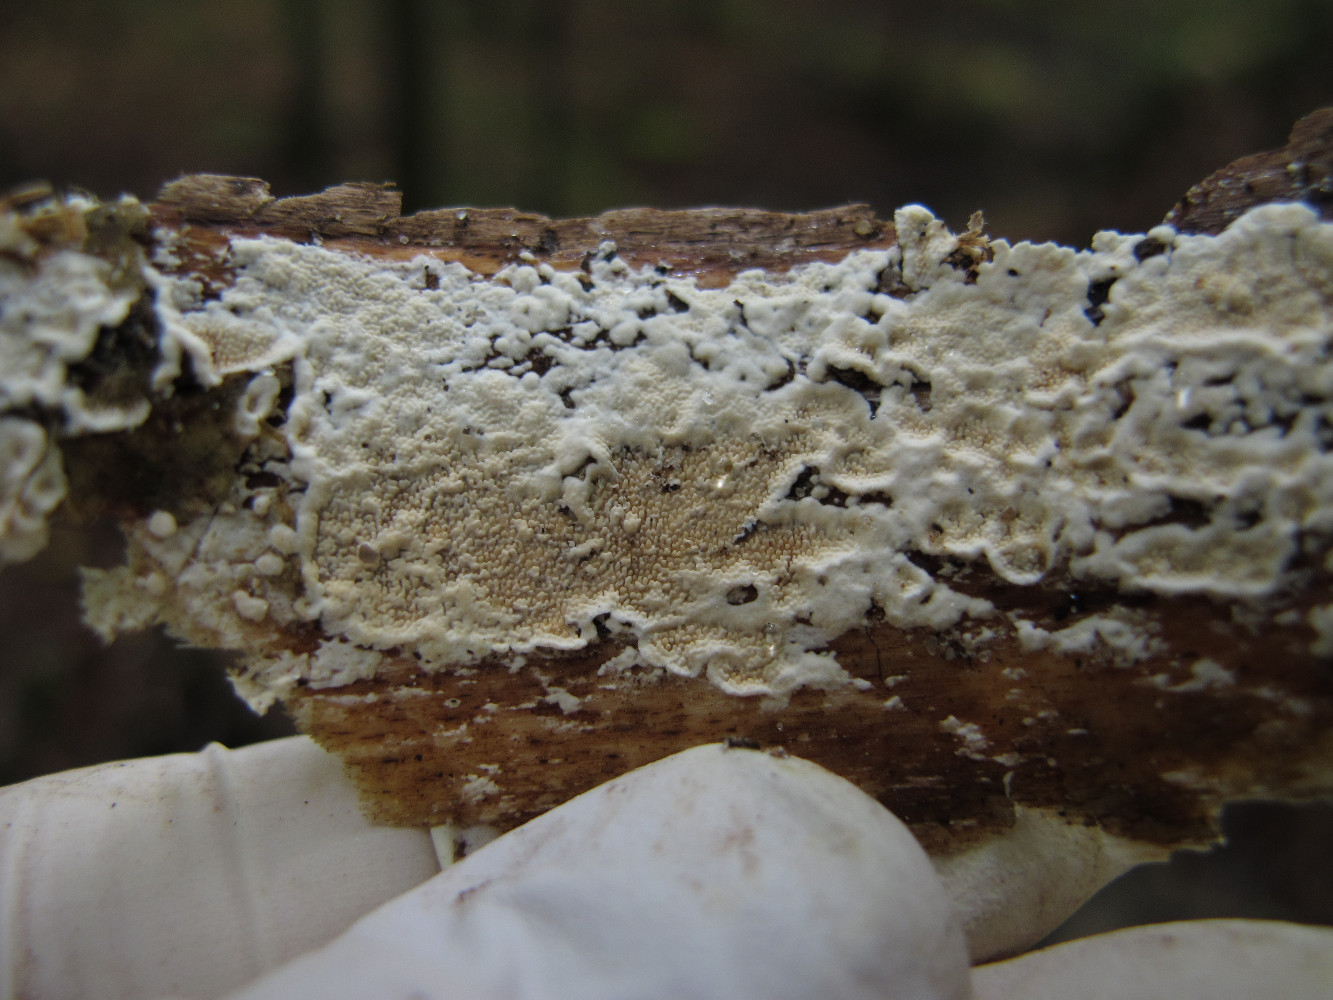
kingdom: Fungi
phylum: Basidiomycota
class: Agaricomycetes
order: Polyporales
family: Steccherinaceae
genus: Steccherinum
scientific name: Steccherinum ochraceum
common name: almindelig skønpig
